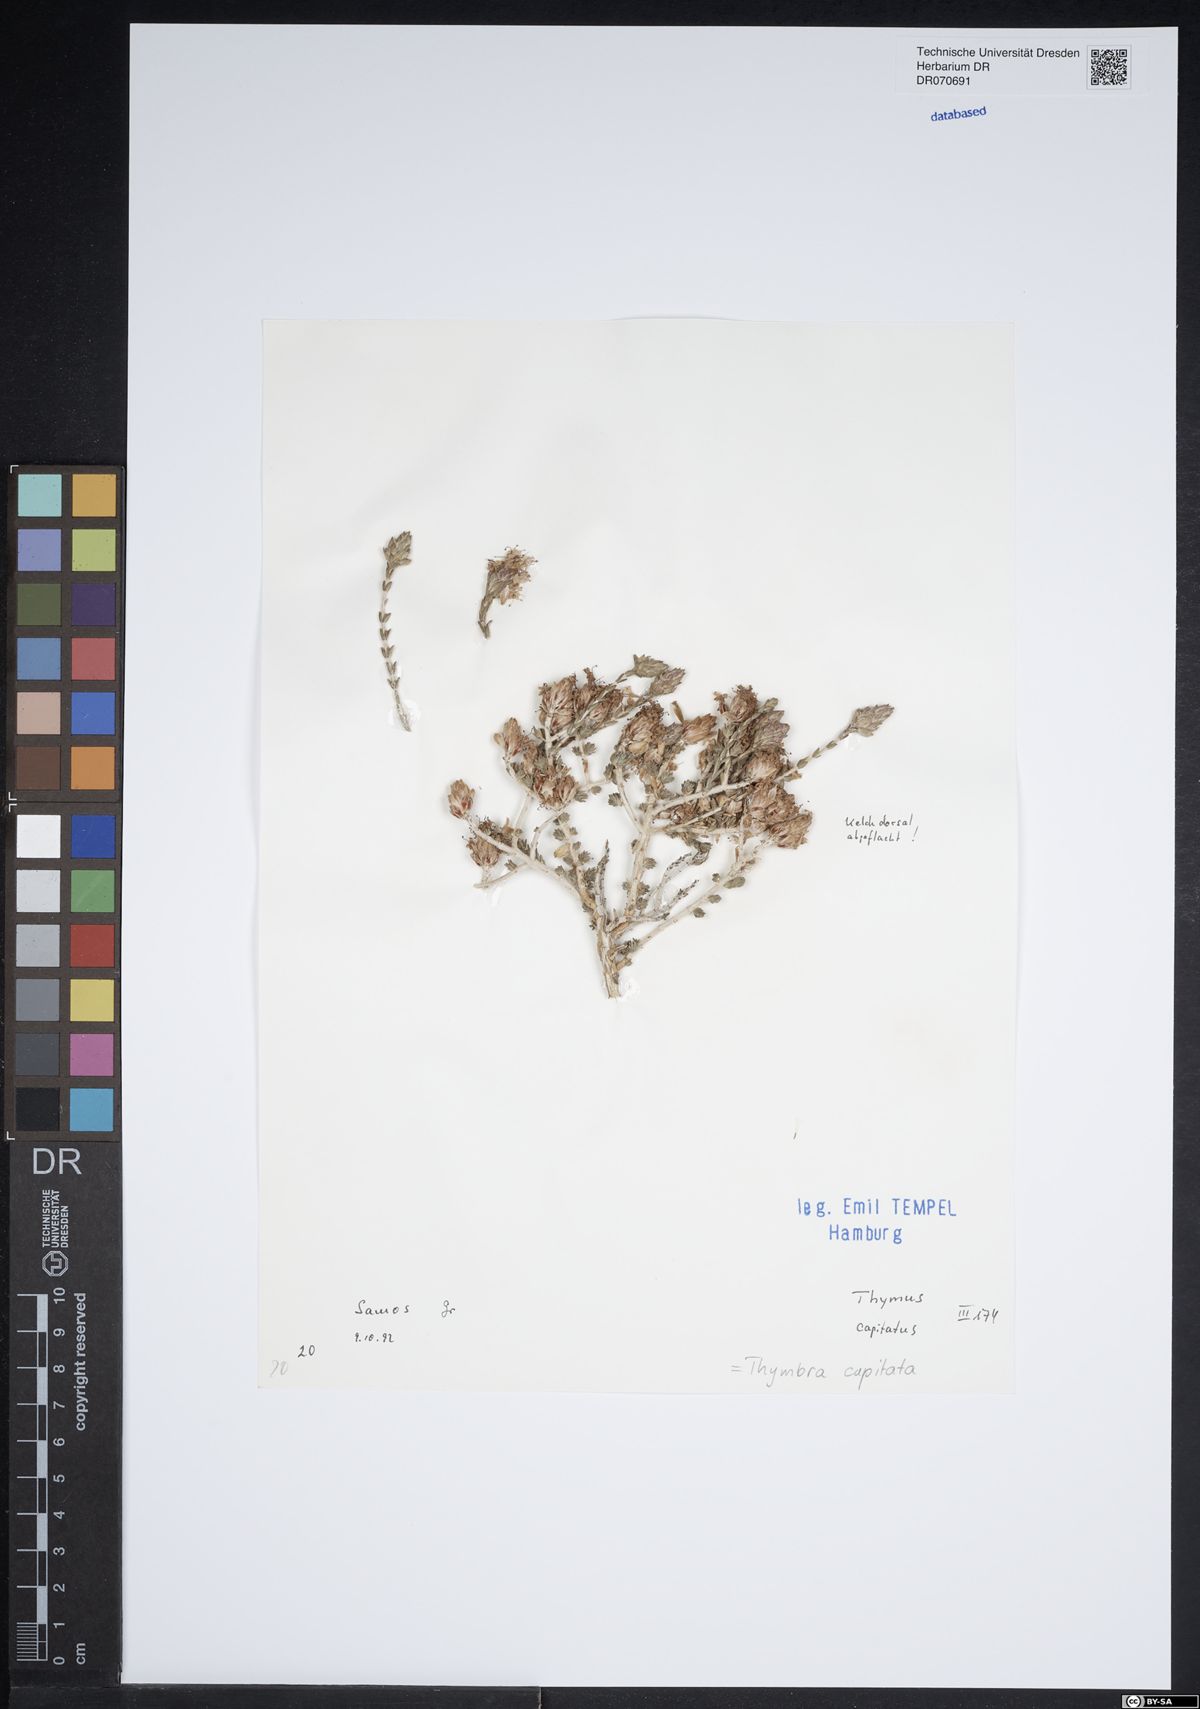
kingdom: Plantae
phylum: Tracheophyta
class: Magnoliopsida
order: Lamiales
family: Lamiaceae
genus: Thymbra
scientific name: Thymbra capitata
